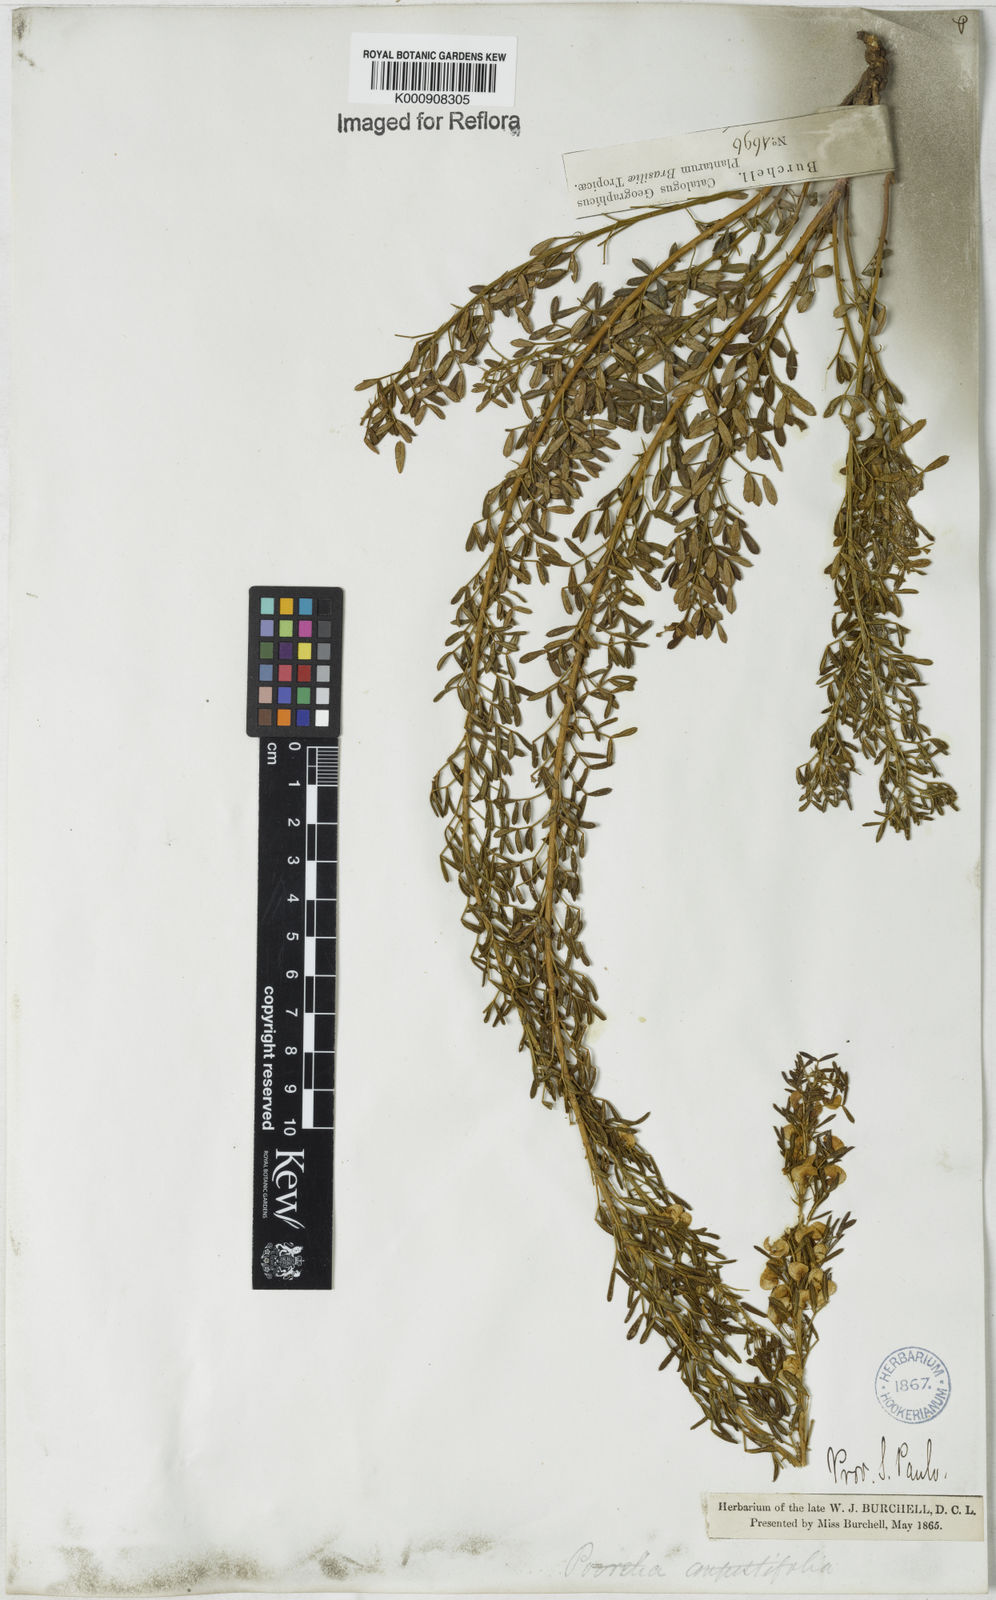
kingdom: Plantae
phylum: Tracheophyta
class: Magnoliopsida
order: Fabales
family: Fabaceae
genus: Poiretia
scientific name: Poiretia angustifolia
